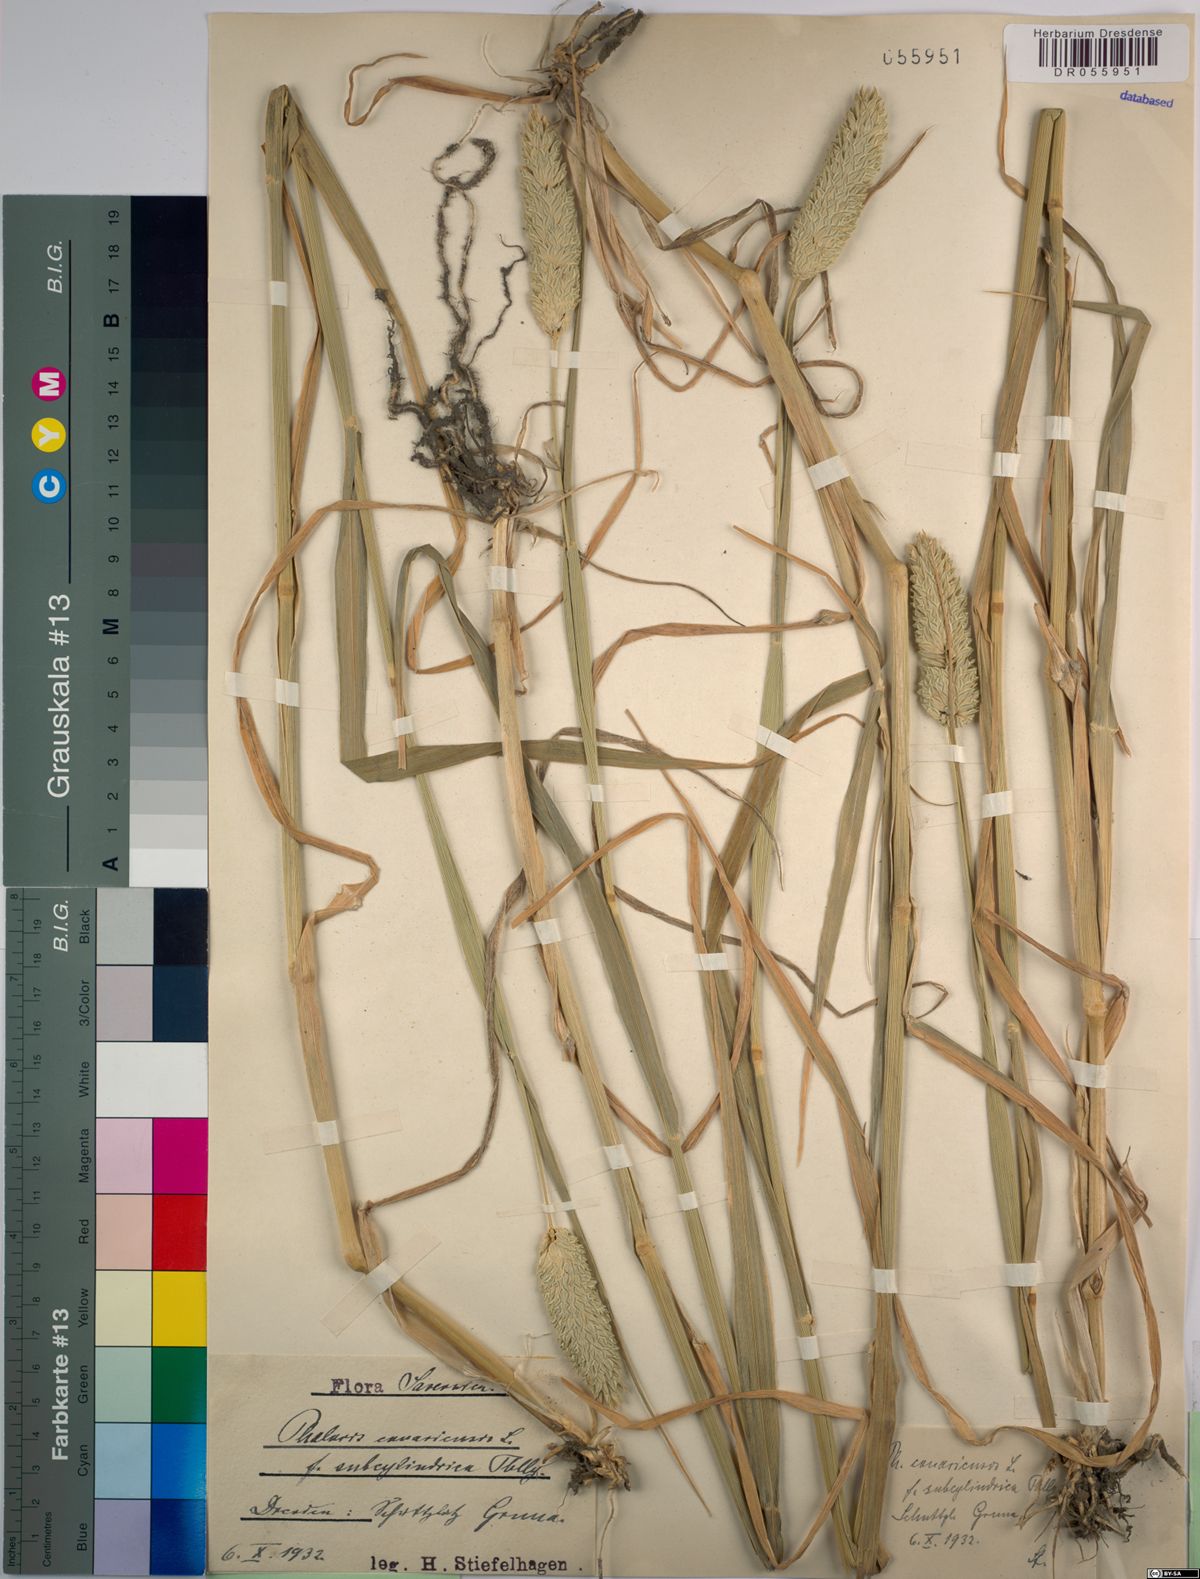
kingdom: Plantae
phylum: Tracheophyta
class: Liliopsida
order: Poales
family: Poaceae
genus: Phalaris
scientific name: Phalaris canariensis
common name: Annual canarygrass
